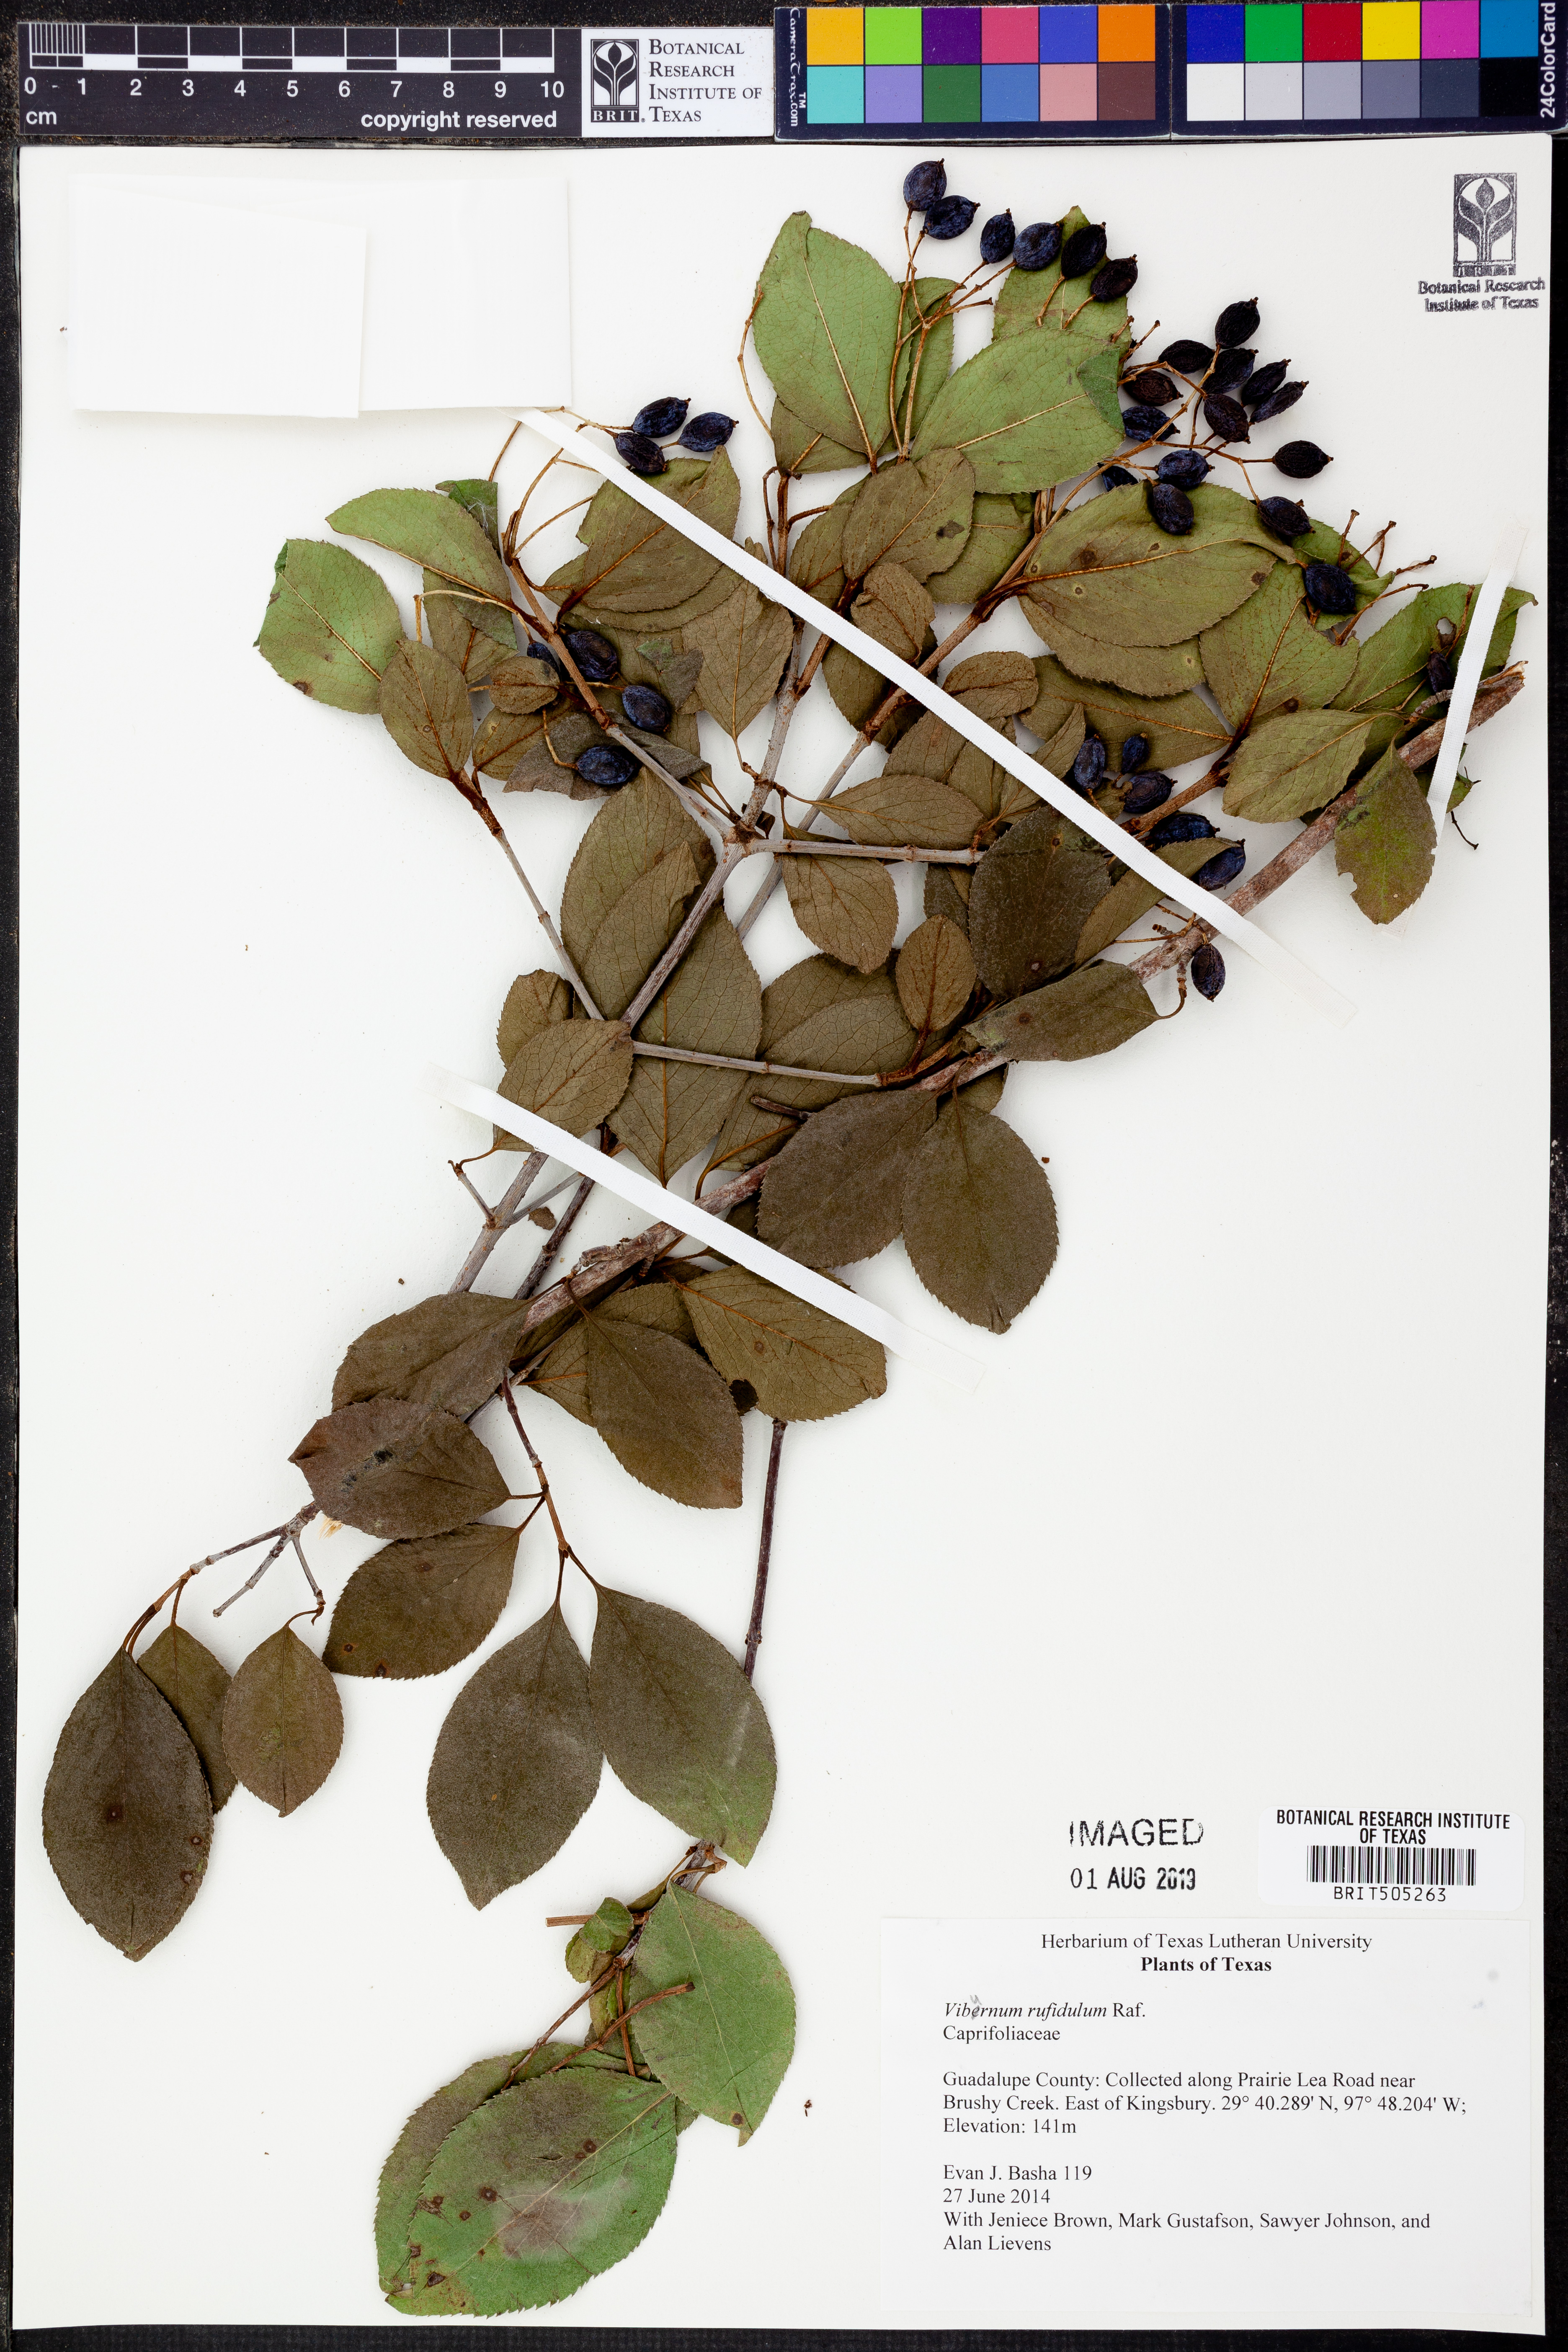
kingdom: Plantae
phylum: Tracheophyta
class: Magnoliopsida
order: Dipsacales
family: Viburnaceae
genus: Viburnum
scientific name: Viburnum rufidulum
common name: Blue haw
